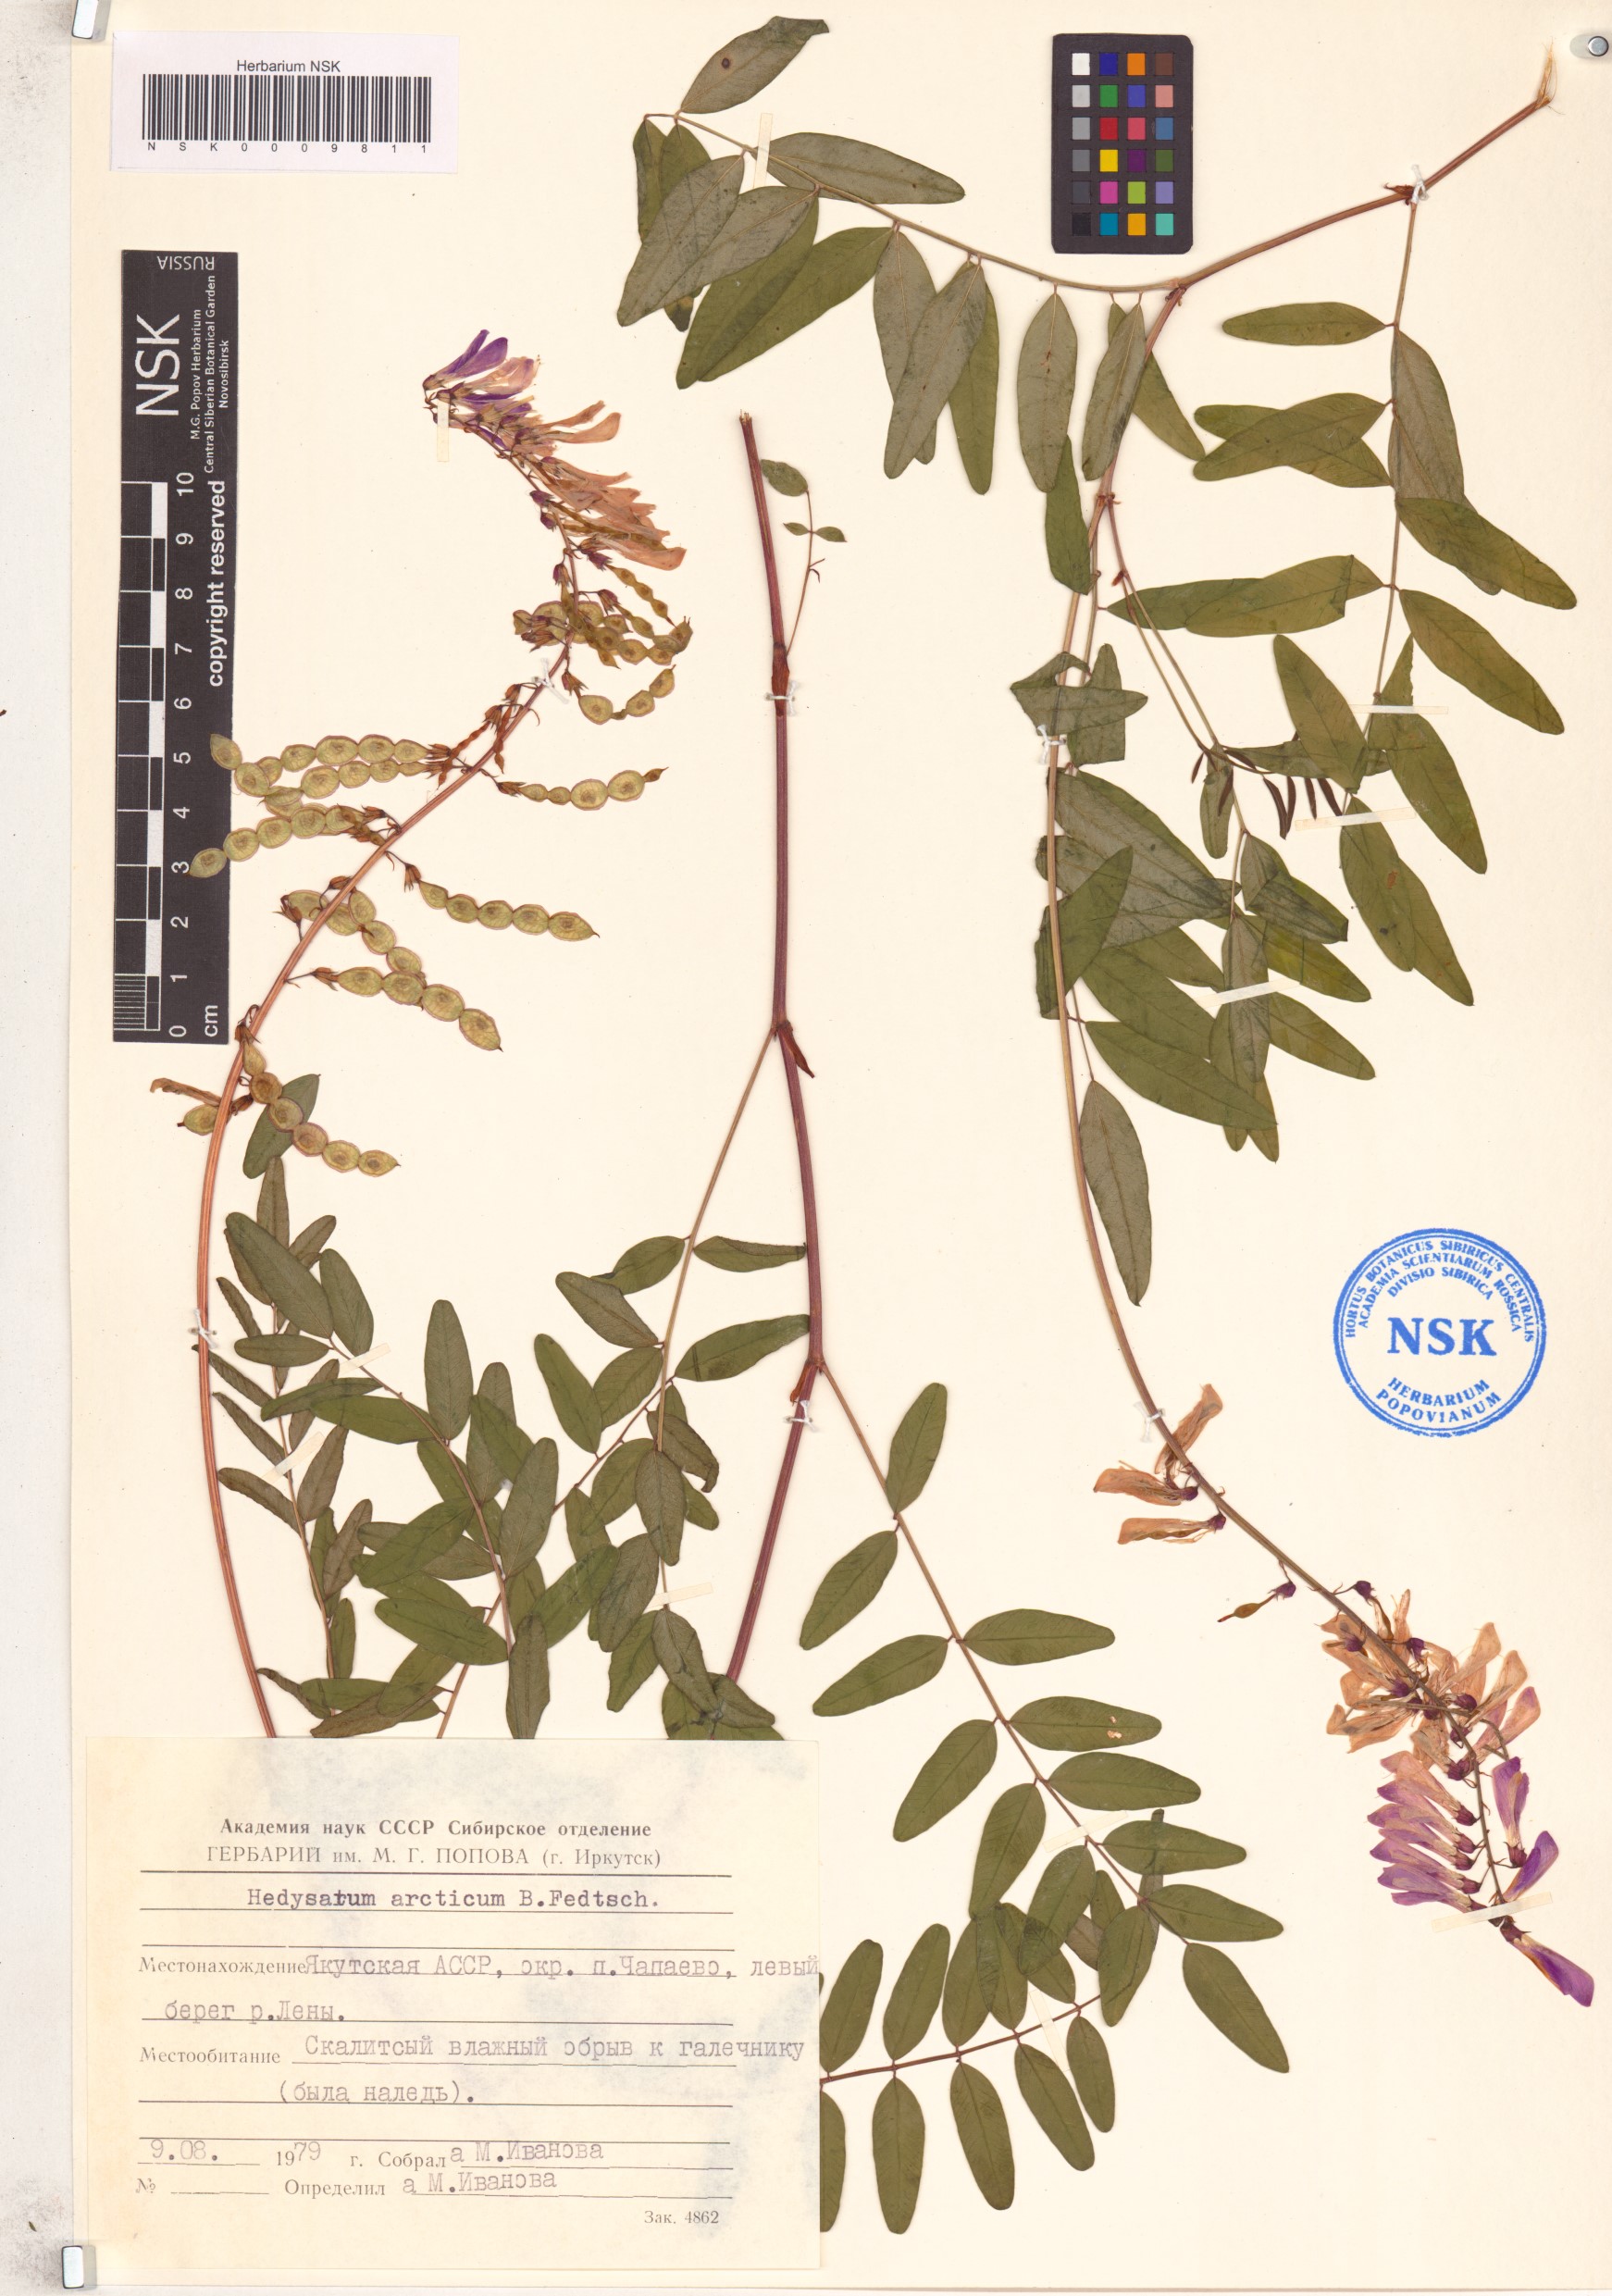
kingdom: Plantae
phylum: Tracheophyta
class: Magnoliopsida
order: Fabales
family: Fabaceae
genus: Hedysarum
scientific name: Hedysarum hedysaroides
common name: Alpine french-honeysuckle
